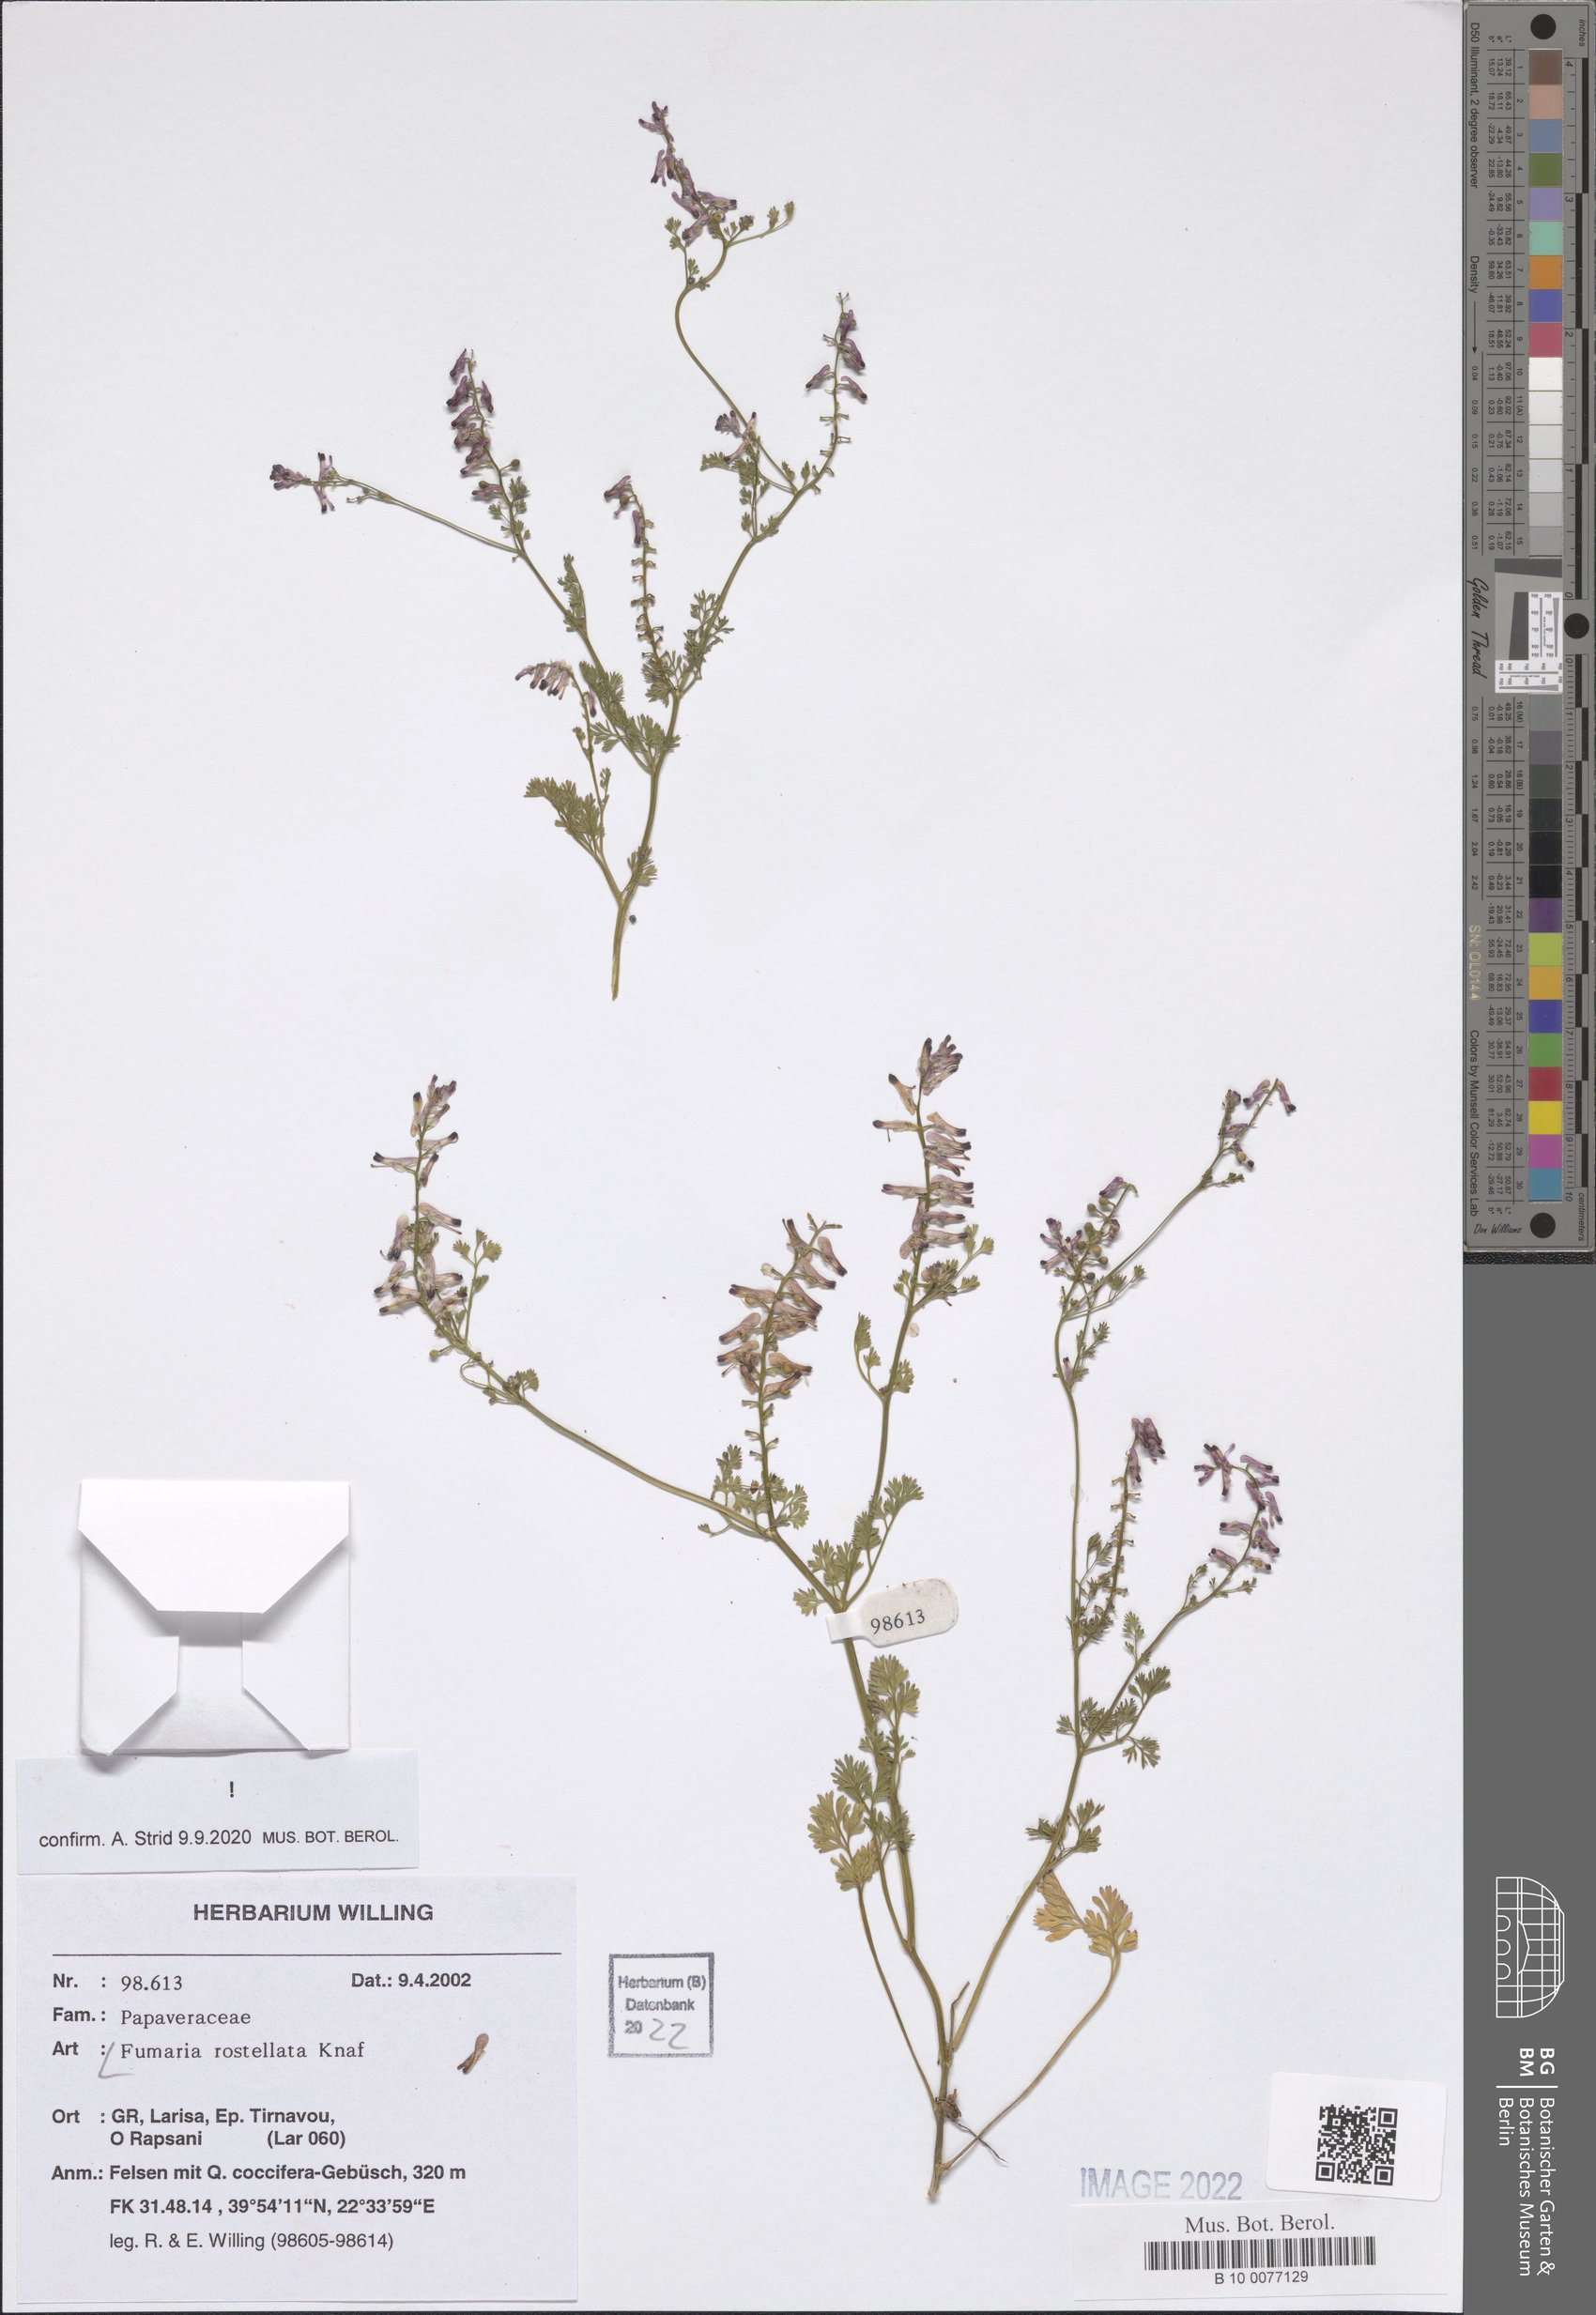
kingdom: Plantae
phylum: Tracheophyta
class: Magnoliopsida
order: Ranunculales
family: Papaveraceae
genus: Fumaria
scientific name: Fumaria rostellata
